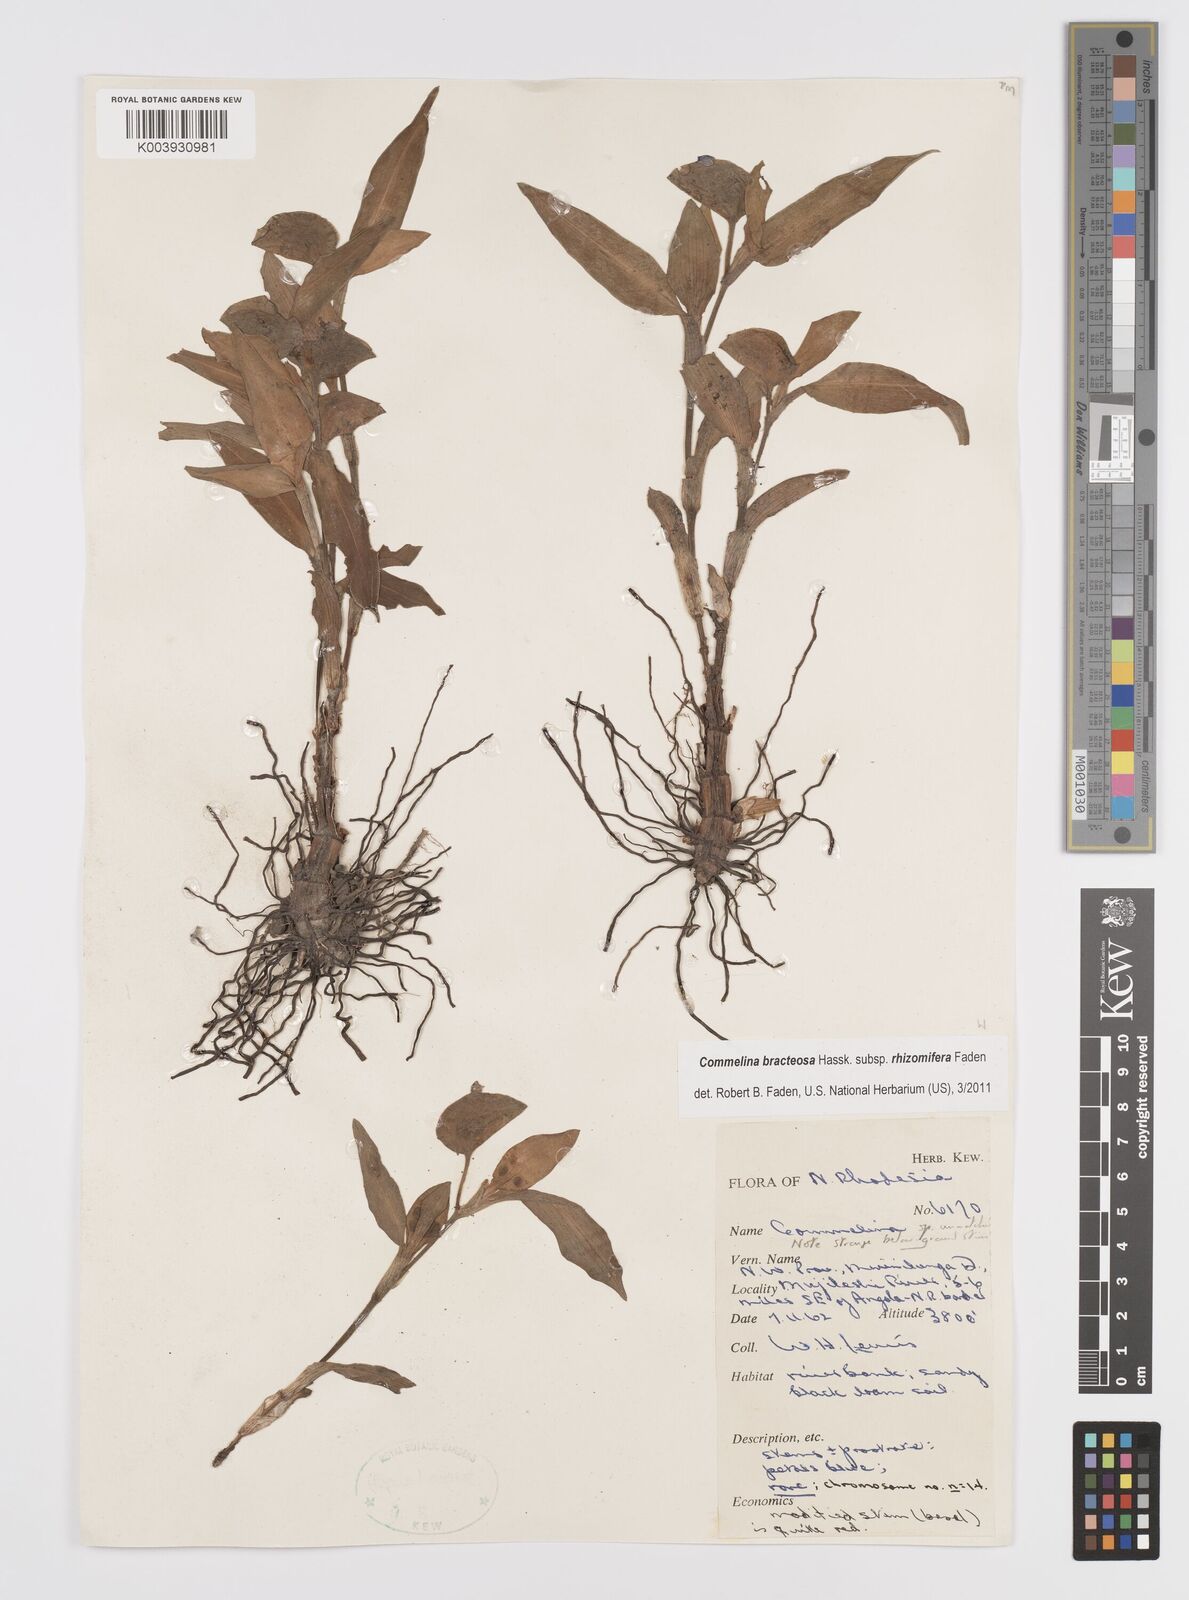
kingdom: Plantae
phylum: Tracheophyta
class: Liliopsida
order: Commelinales
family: Commelinaceae
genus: Commelina
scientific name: Commelina bracteosa
